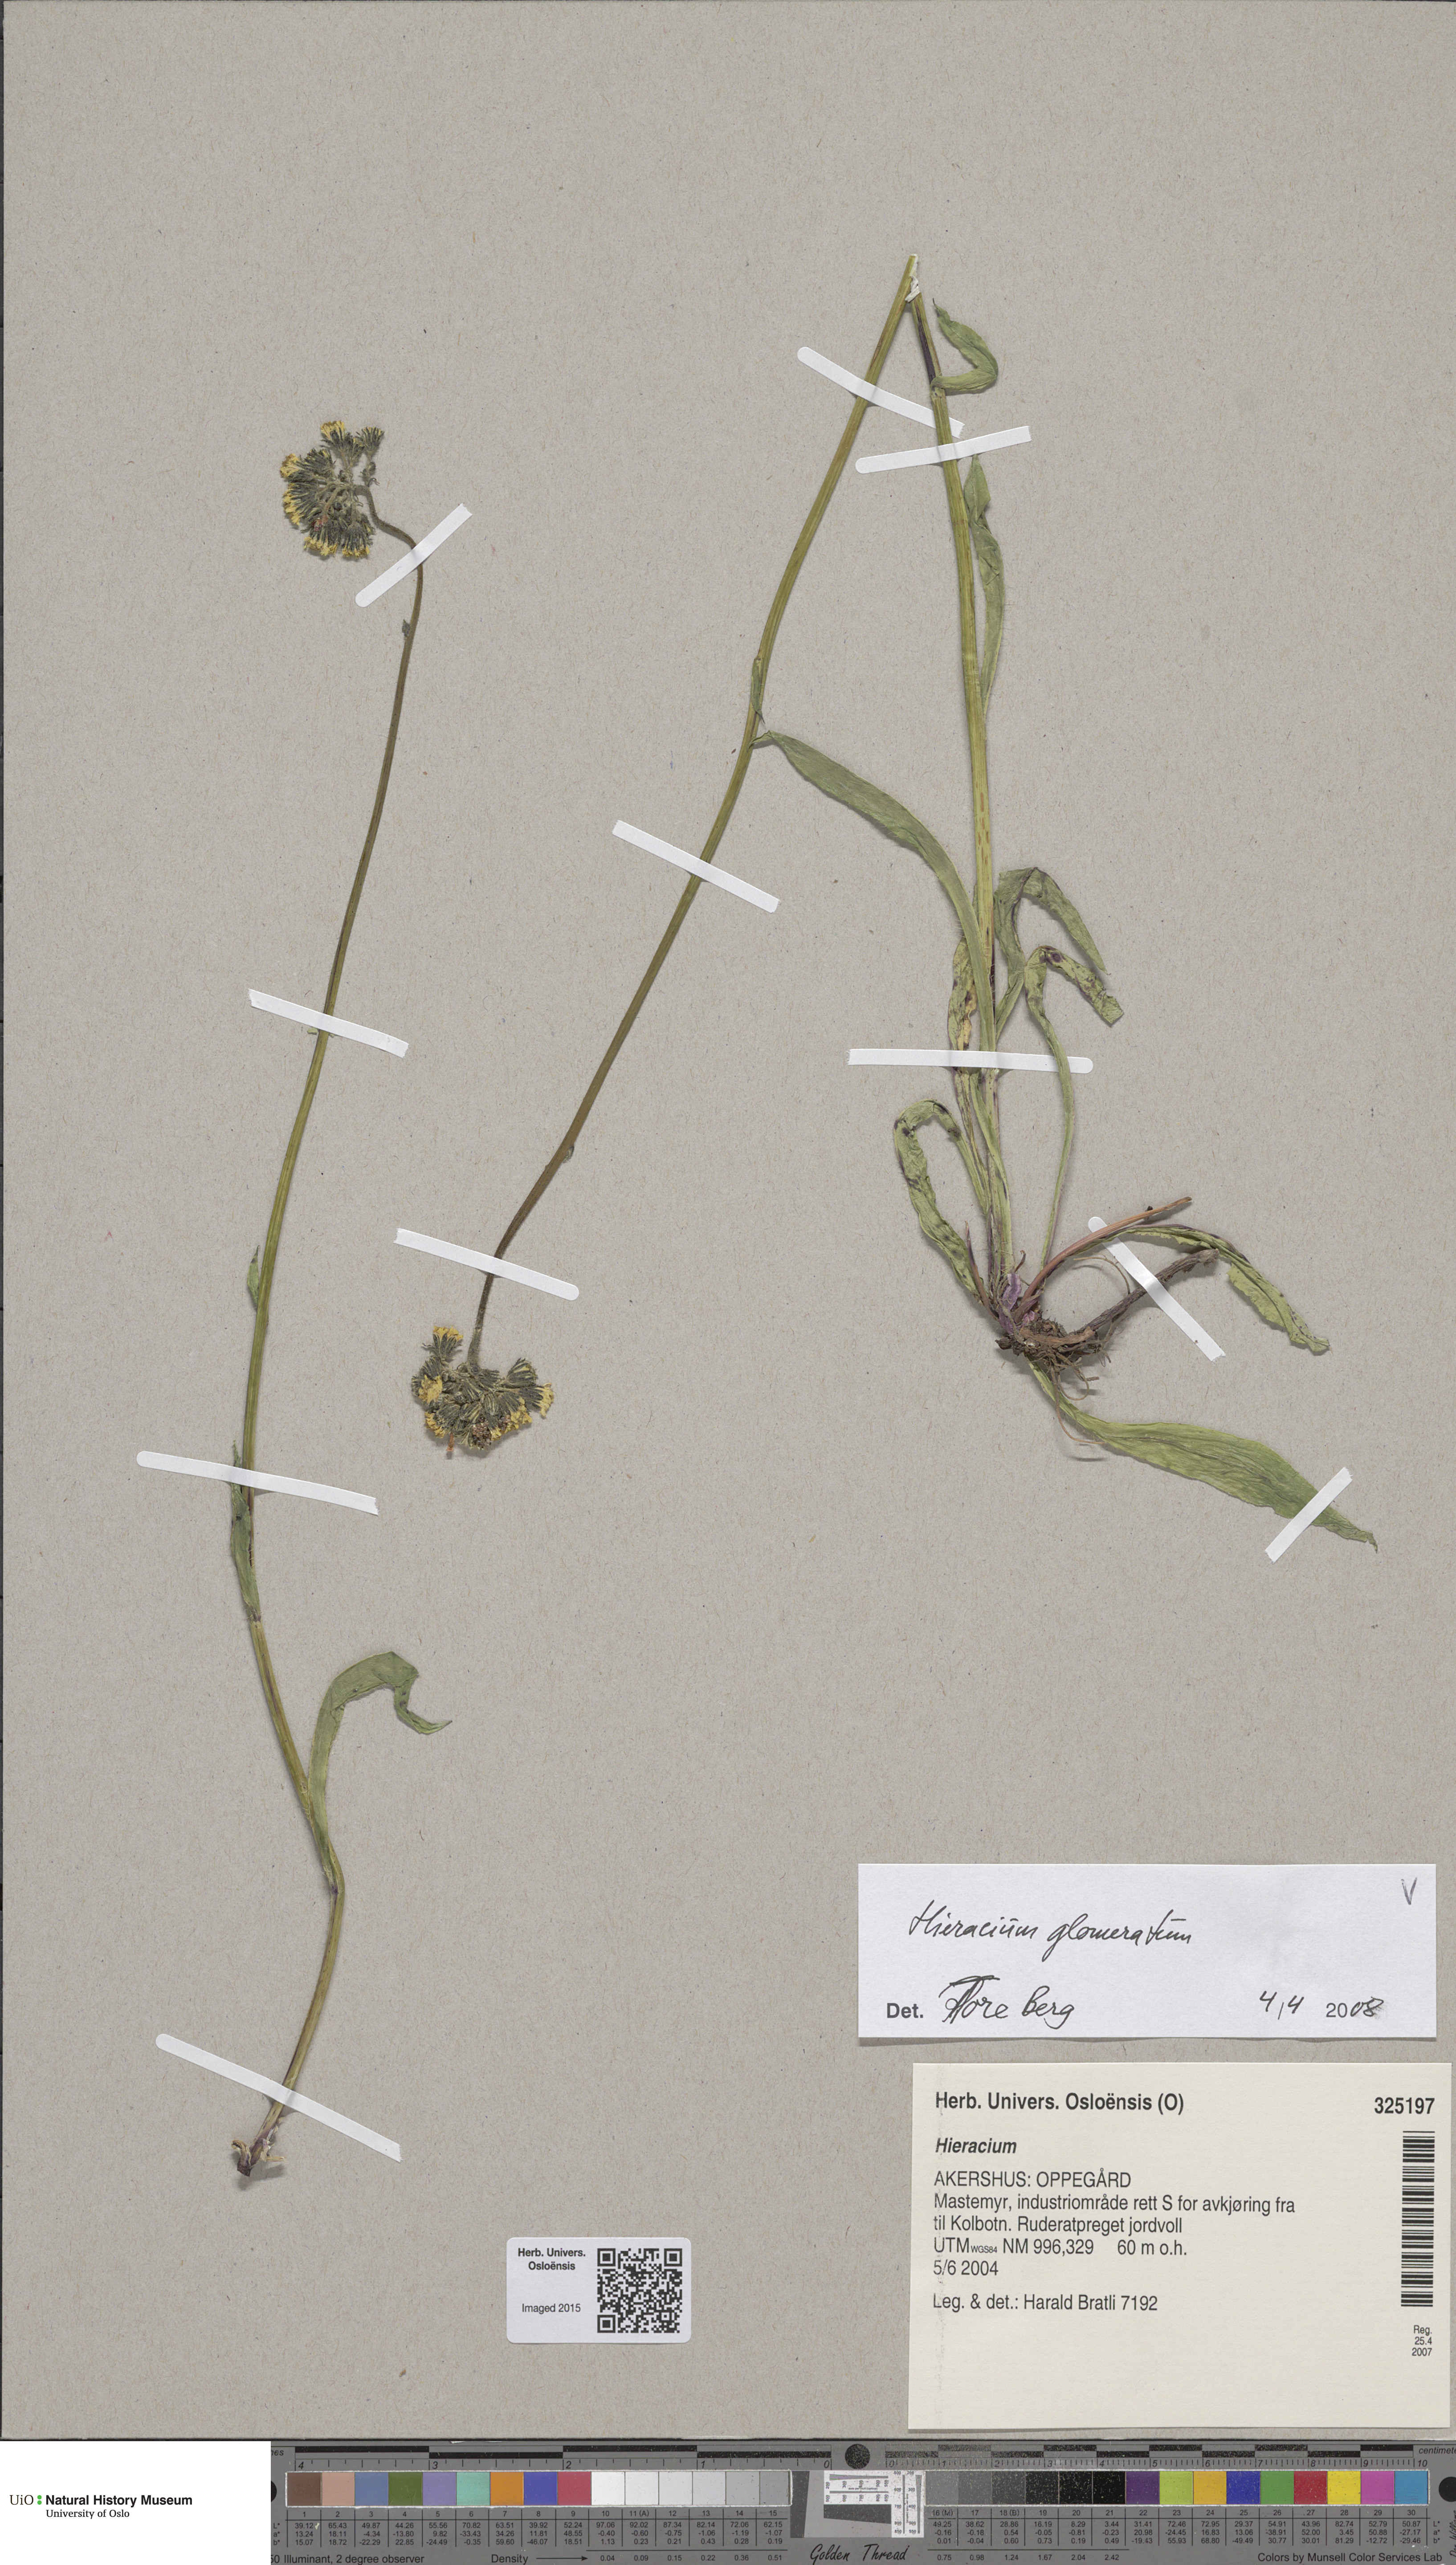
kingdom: Plantae
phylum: Tracheophyta
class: Magnoliopsida
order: Asterales
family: Asteraceae
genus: Pilosella
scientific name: Pilosella glomerata
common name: Queen devil hawkweed
